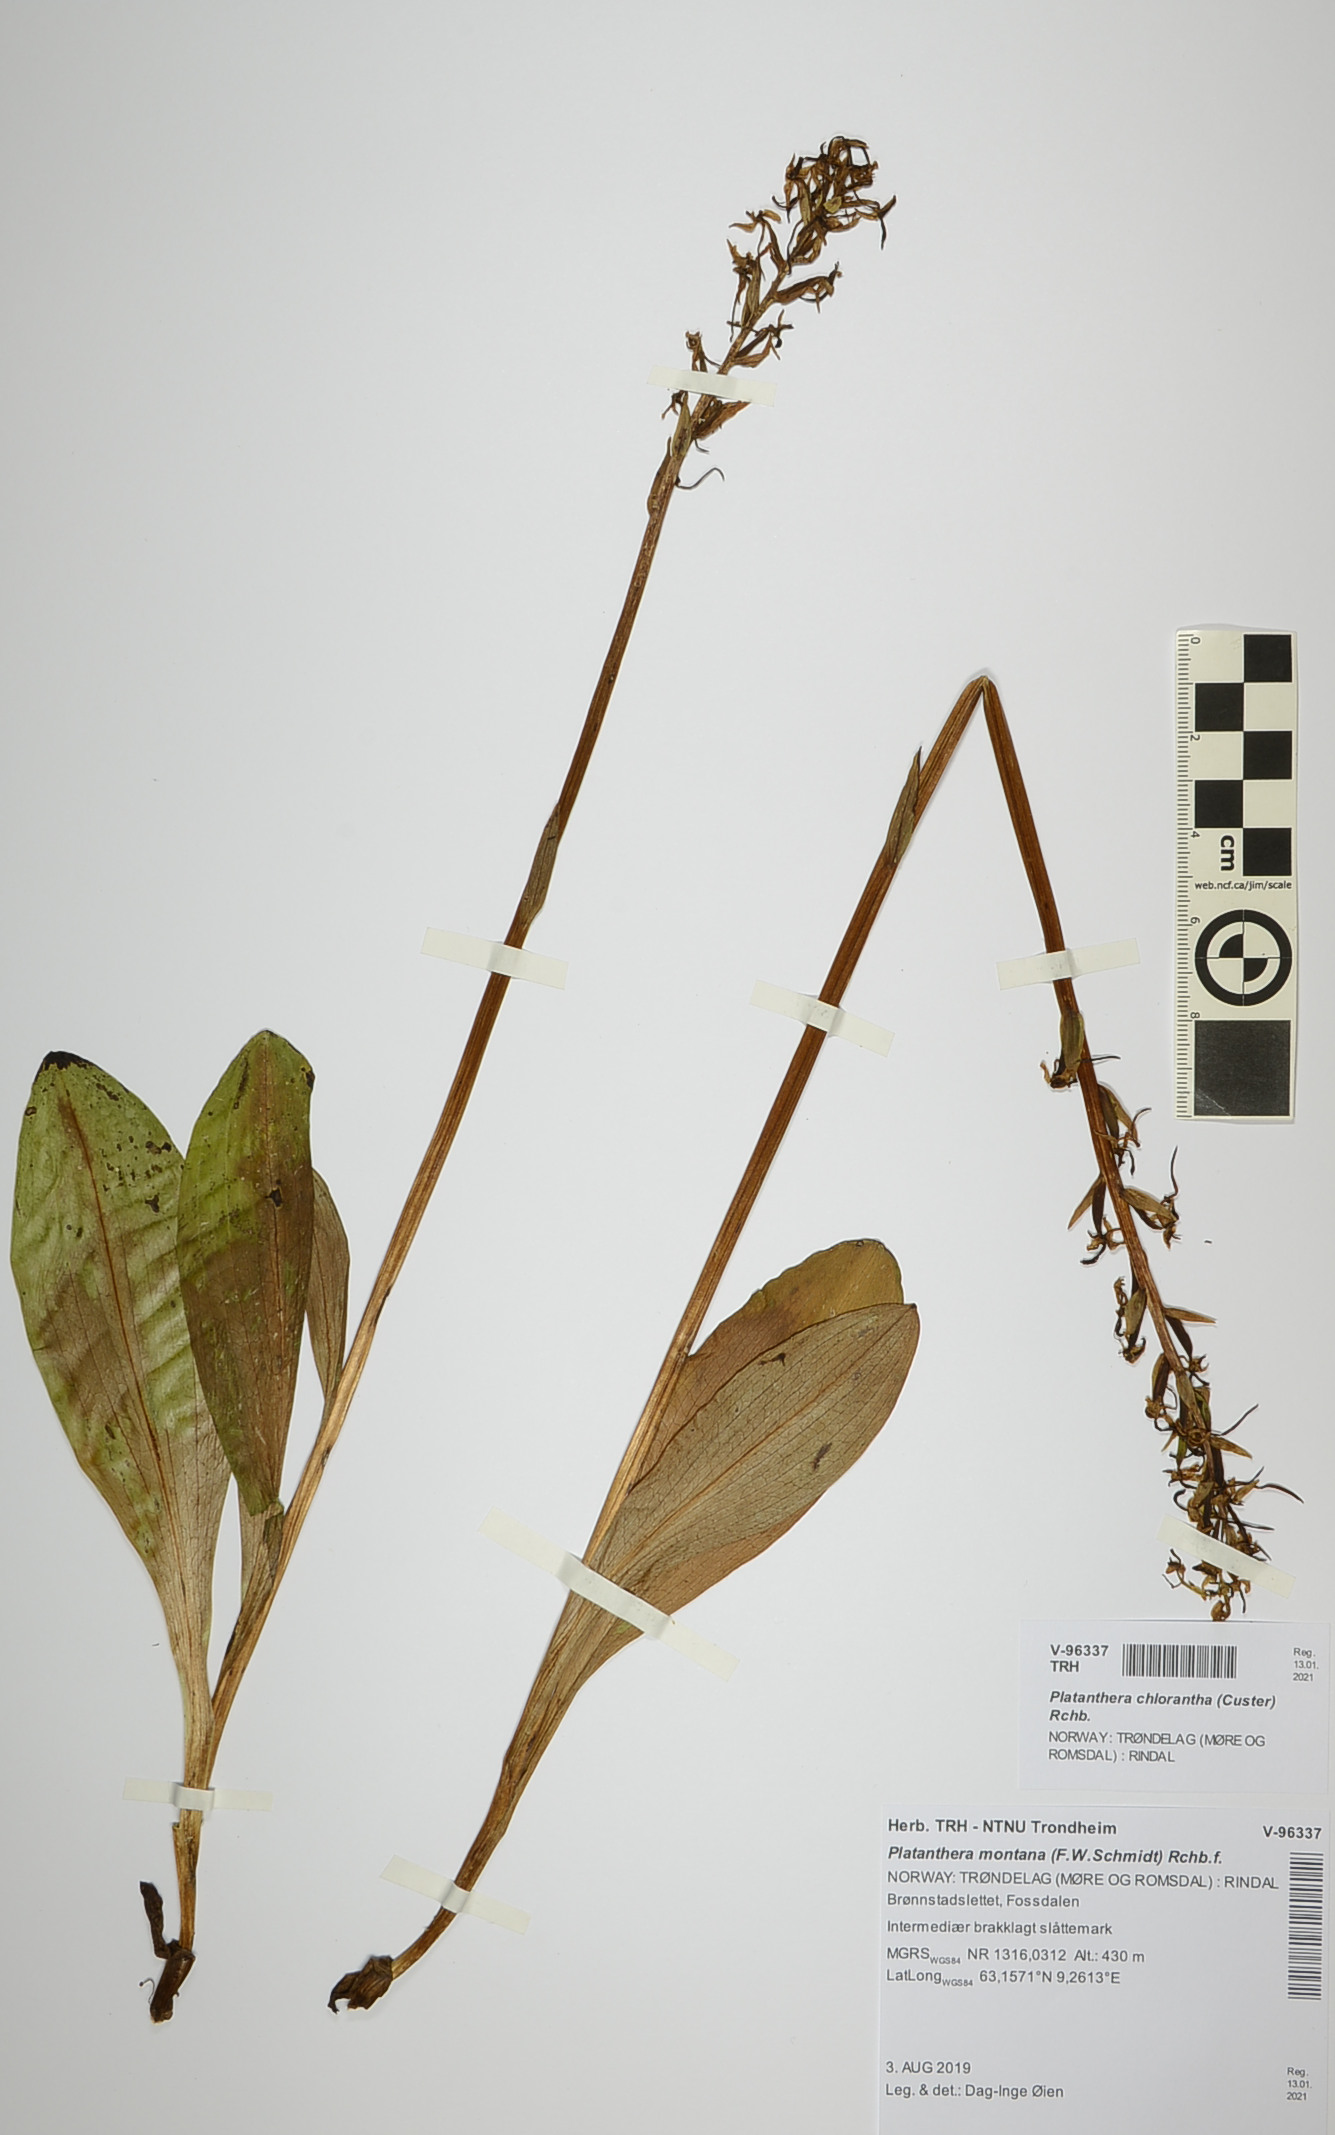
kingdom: Plantae
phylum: Tracheophyta
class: Liliopsida
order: Asparagales
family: Orchidaceae
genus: Platanthera
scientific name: Platanthera chlorantha
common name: Greater butterfly-orchid
